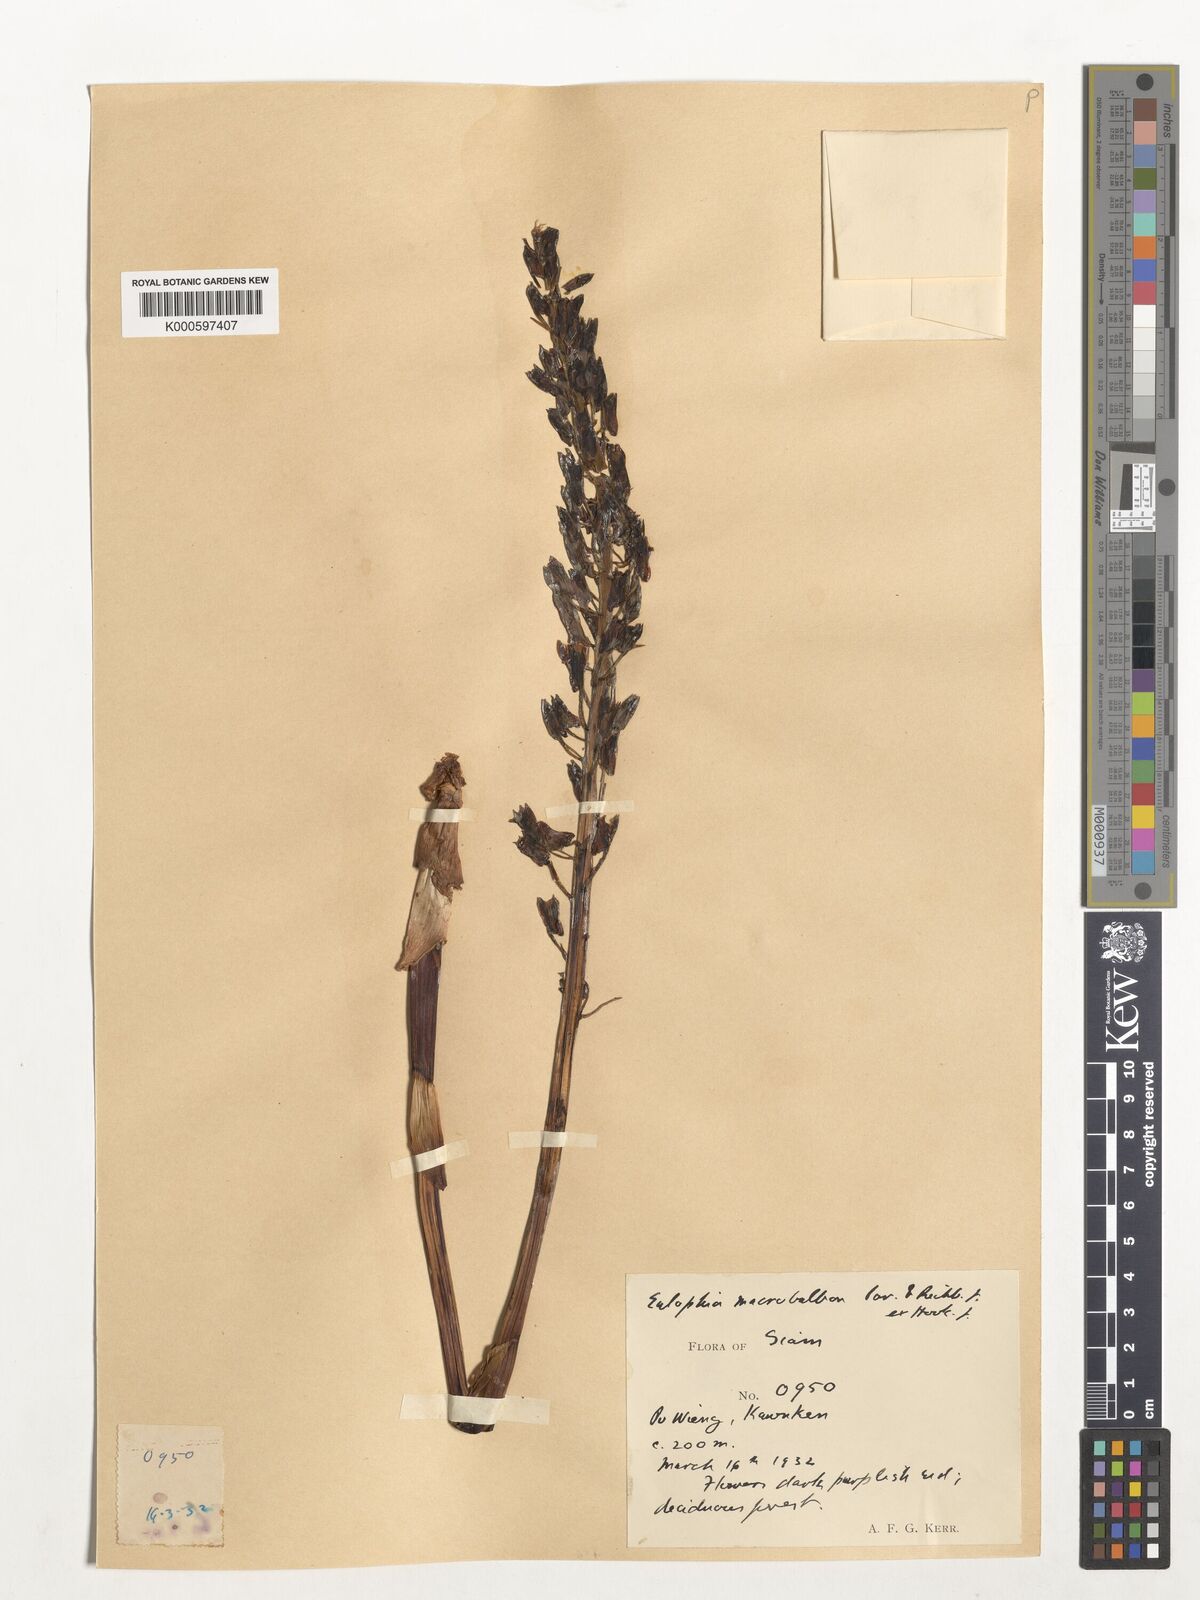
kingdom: Plantae
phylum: Tracheophyta
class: Liliopsida
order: Asparagales
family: Orchidaceae
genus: Eulophia
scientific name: Eulophia macrobulbon
